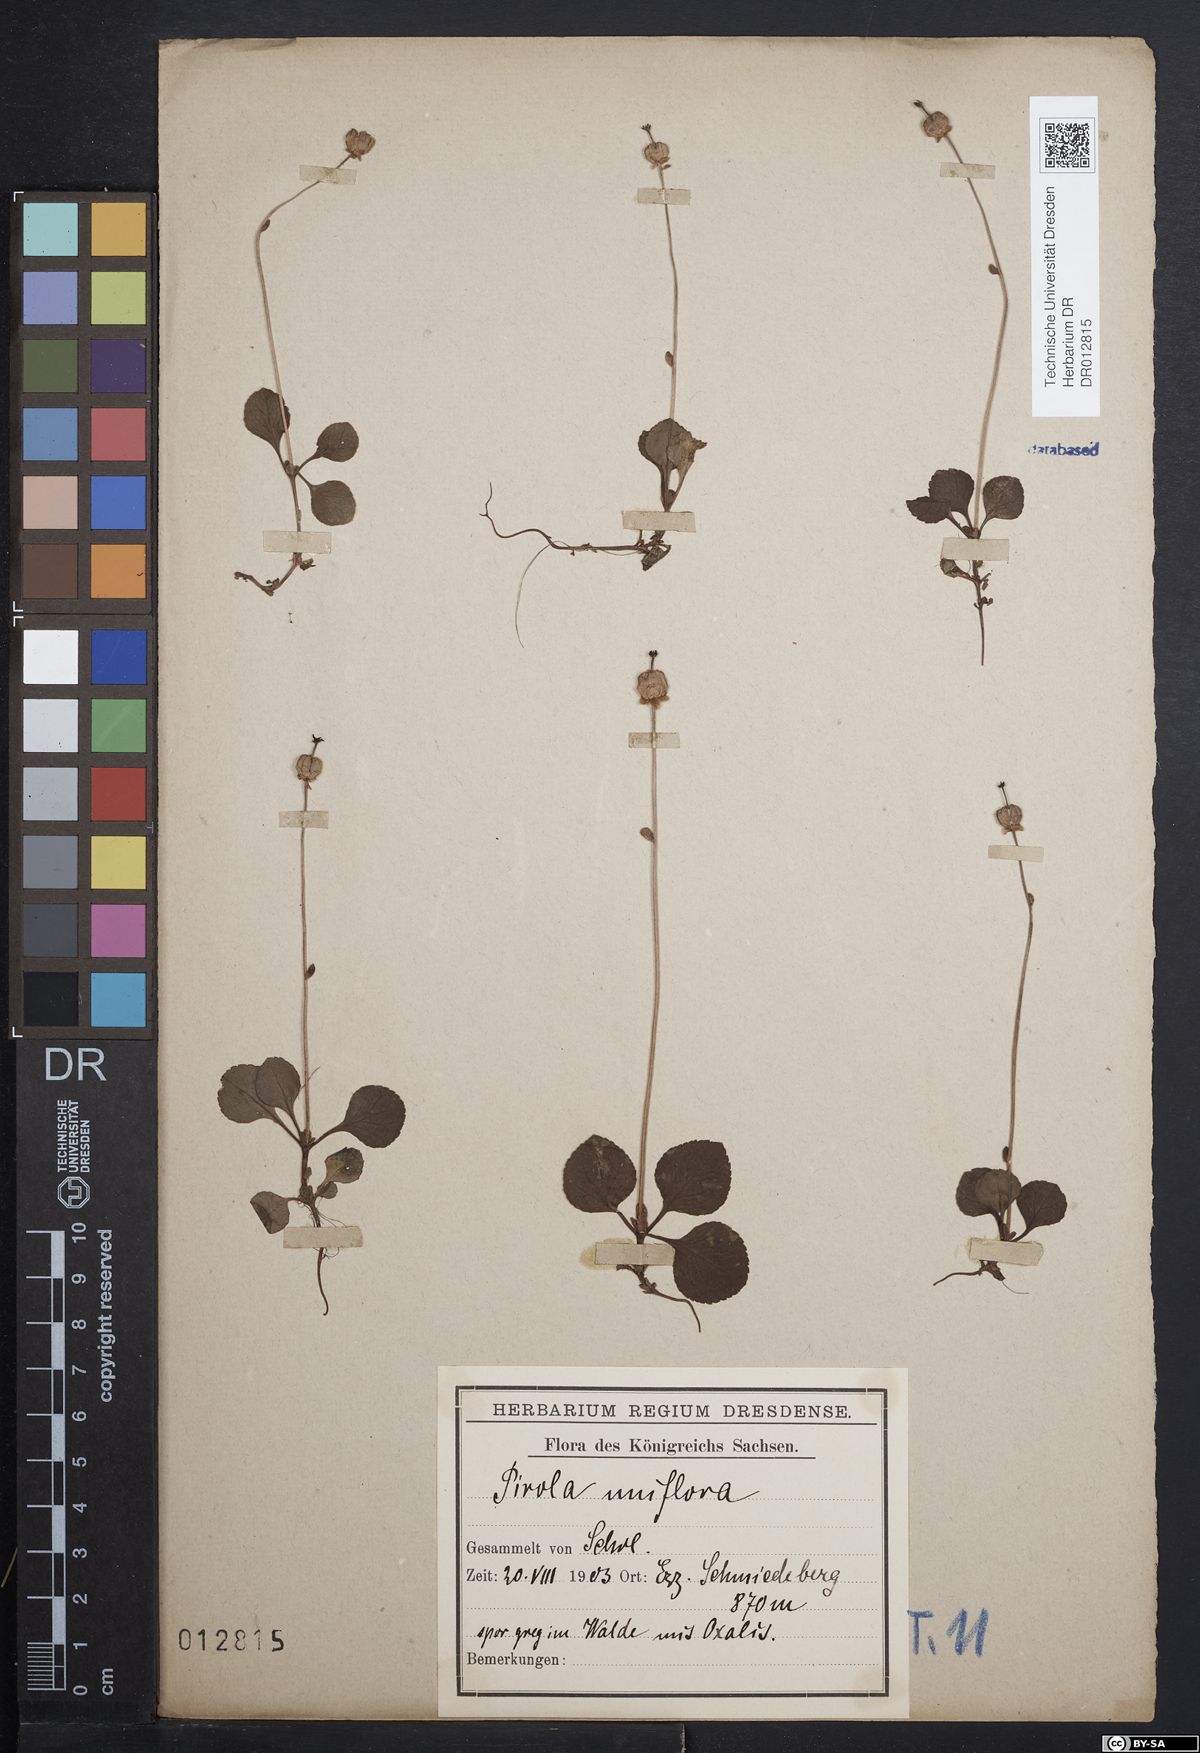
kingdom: Plantae
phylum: Tracheophyta
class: Magnoliopsida
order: Ericales
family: Ericaceae
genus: Moneses
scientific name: Moneses uniflora
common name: One-flowered wintergreen
